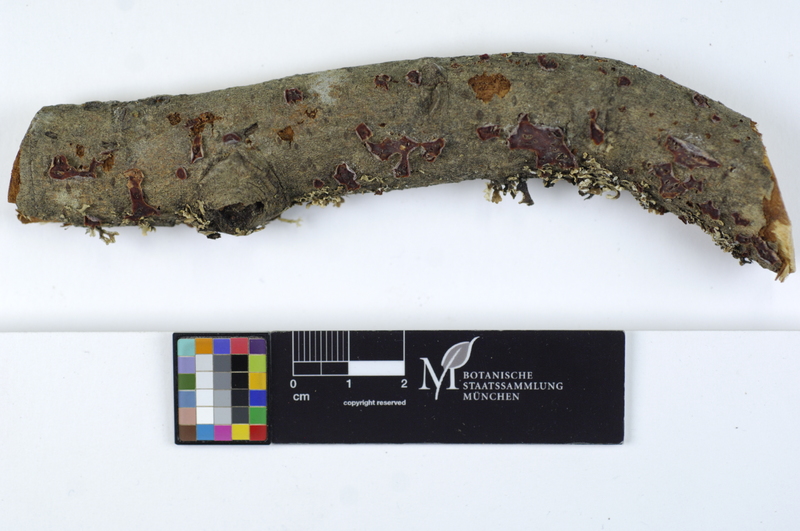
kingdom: Fungi
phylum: Basidiomycota
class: Agaricomycetes
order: Corticiales
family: Vuilleminiaceae
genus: Cytidia
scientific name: Cytidia salicina
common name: Scarlet splash
